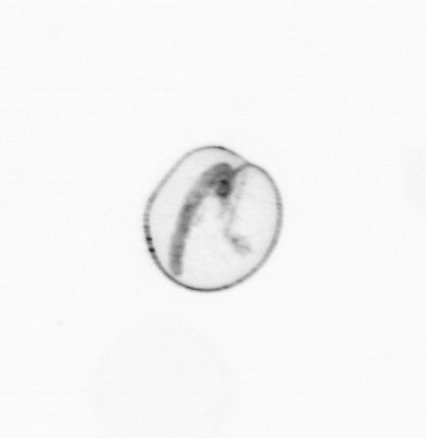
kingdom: Chromista
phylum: Myzozoa
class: Dinophyceae
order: Noctilucales
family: Noctilucaceae
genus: Noctiluca
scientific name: Noctiluca scintillans
